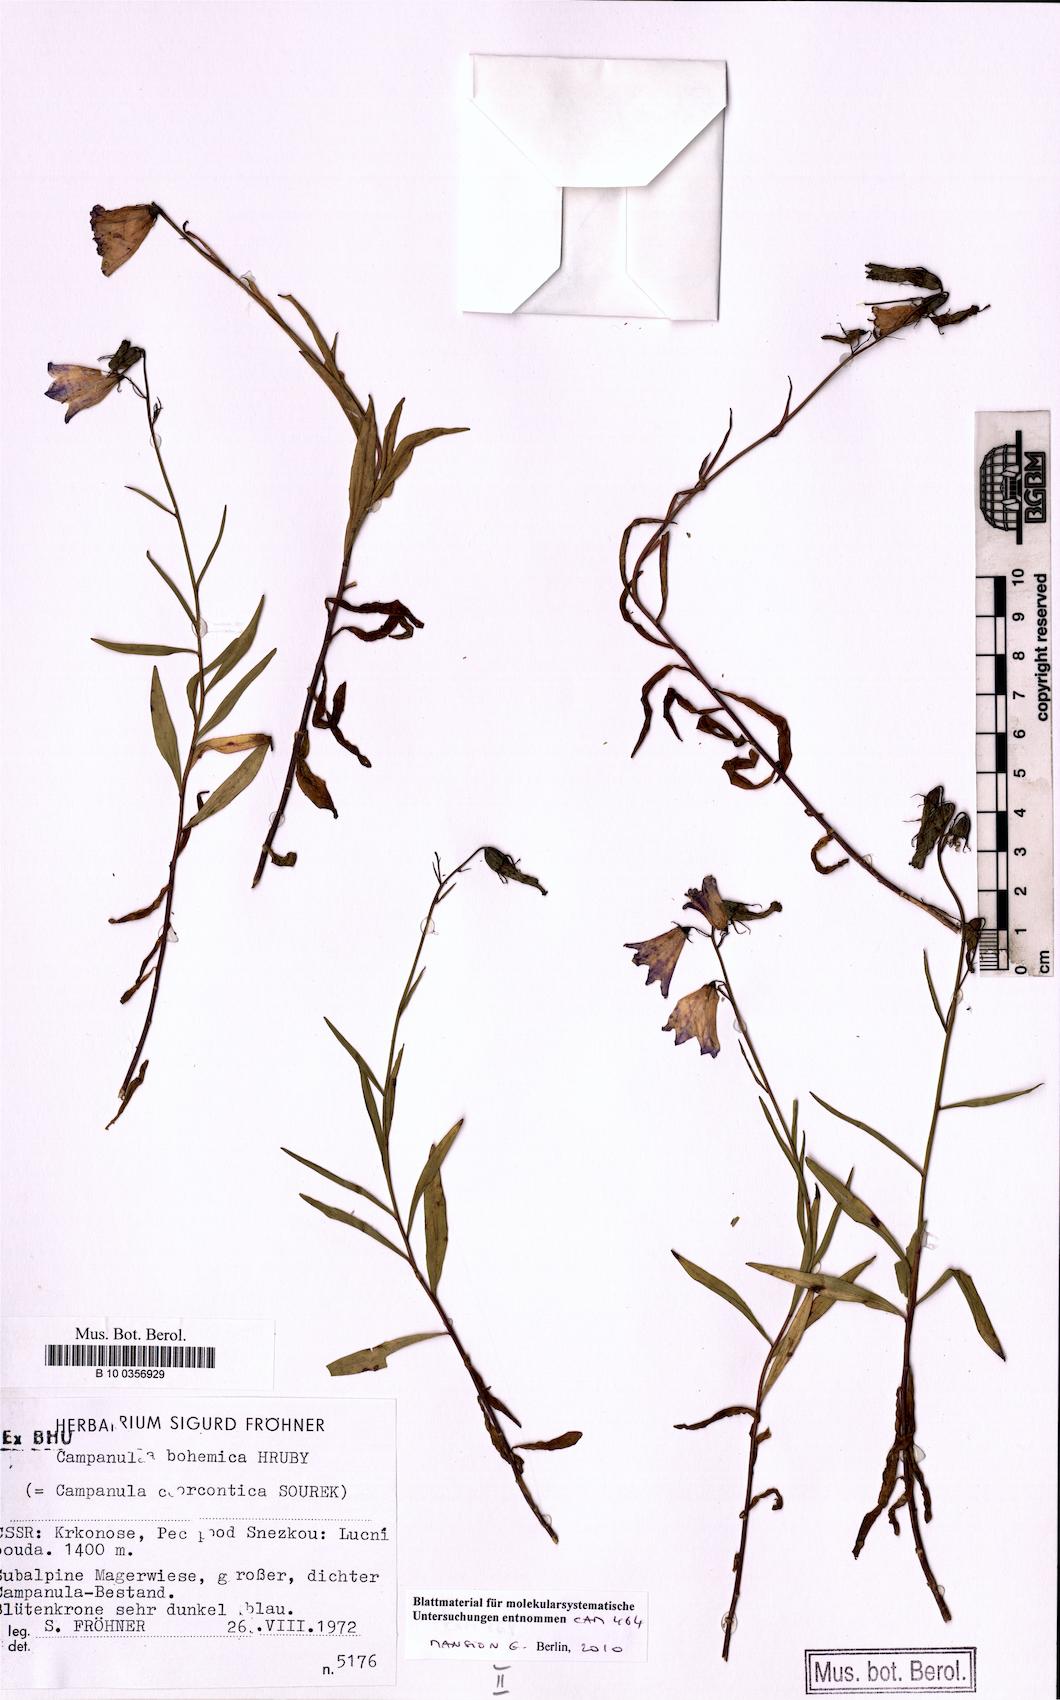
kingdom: Plantae
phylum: Tracheophyta
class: Magnoliopsida
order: Asterales
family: Campanulaceae
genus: Campanula
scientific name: Campanula bohemica
